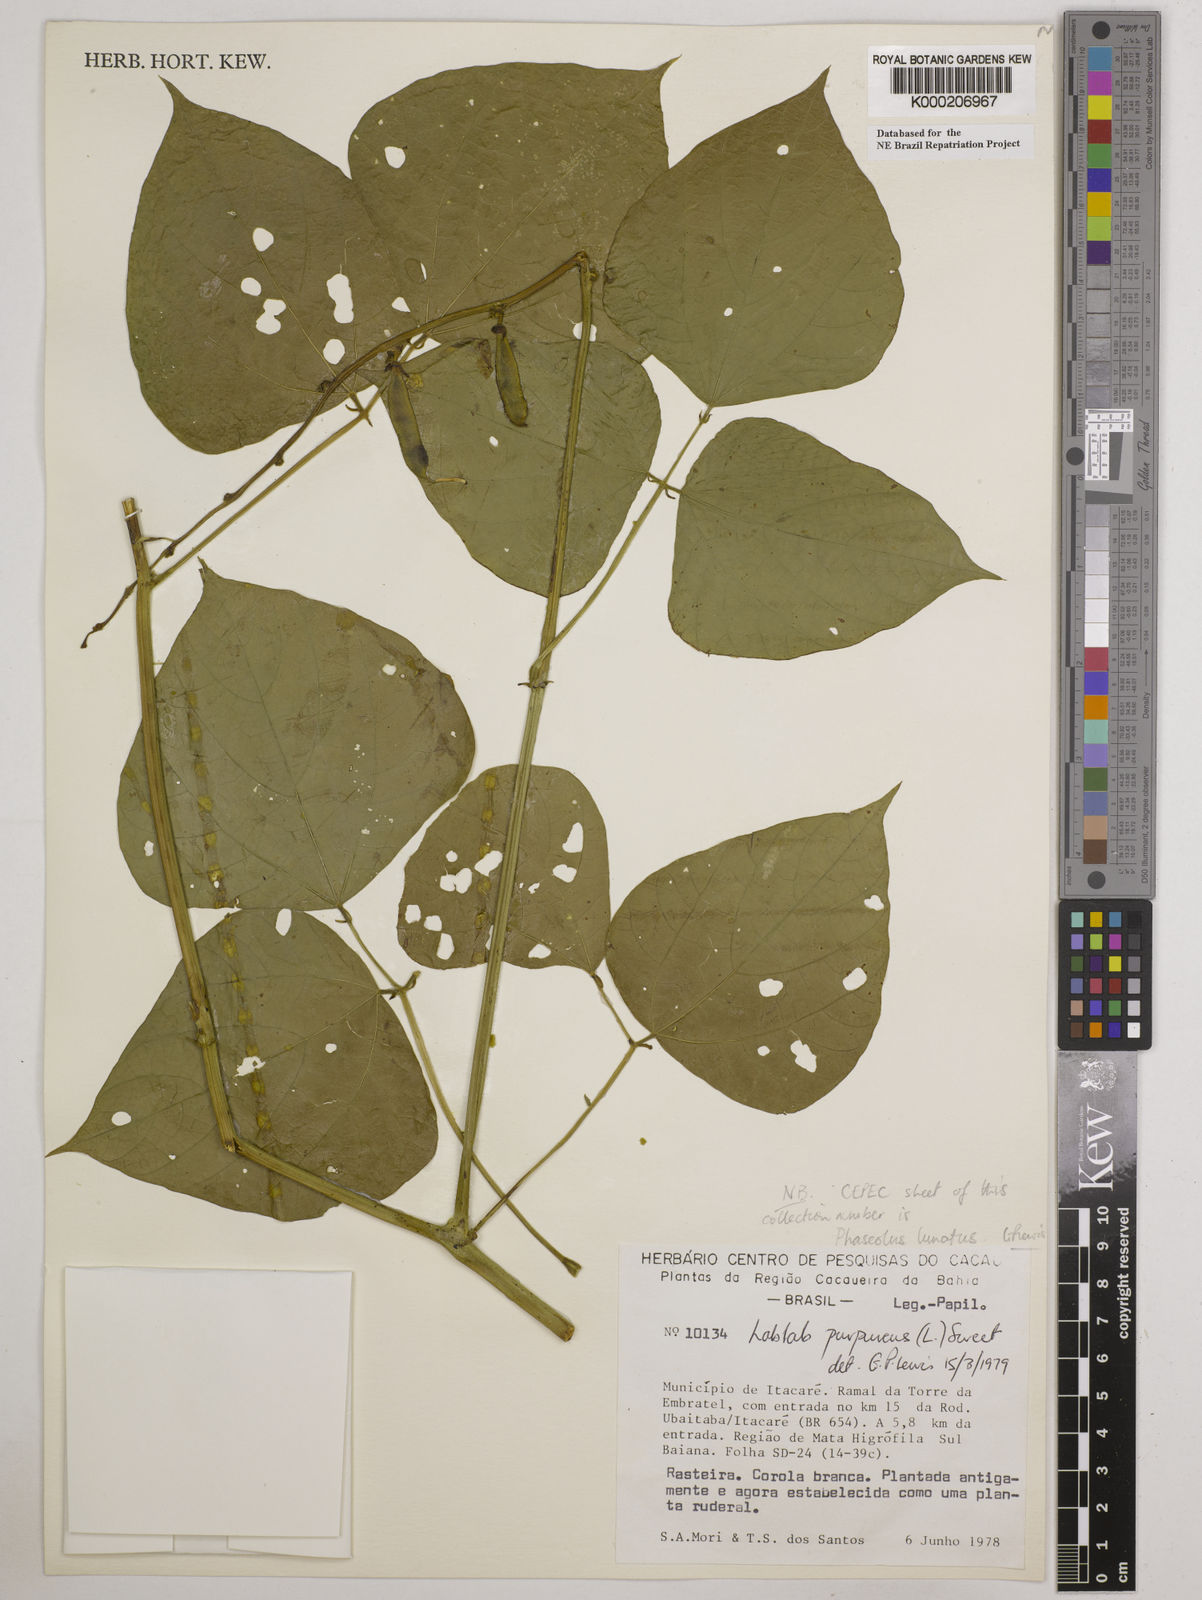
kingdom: Plantae
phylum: Tracheophyta
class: Magnoliopsida
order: Fabales
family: Fabaceae
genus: Lablab
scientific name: Lablab purpureus
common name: Lablab-bean
